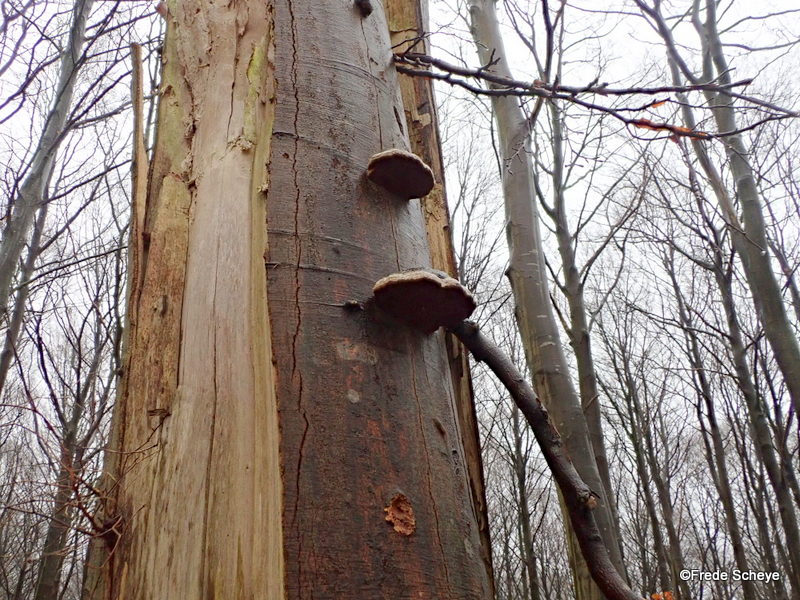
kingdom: Fungi
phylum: Basidiomycota
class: Agaricomycetes
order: Polyporales
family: Polyporaceae
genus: Fomes
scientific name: Fomes fomentarius
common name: tøndersvamp
